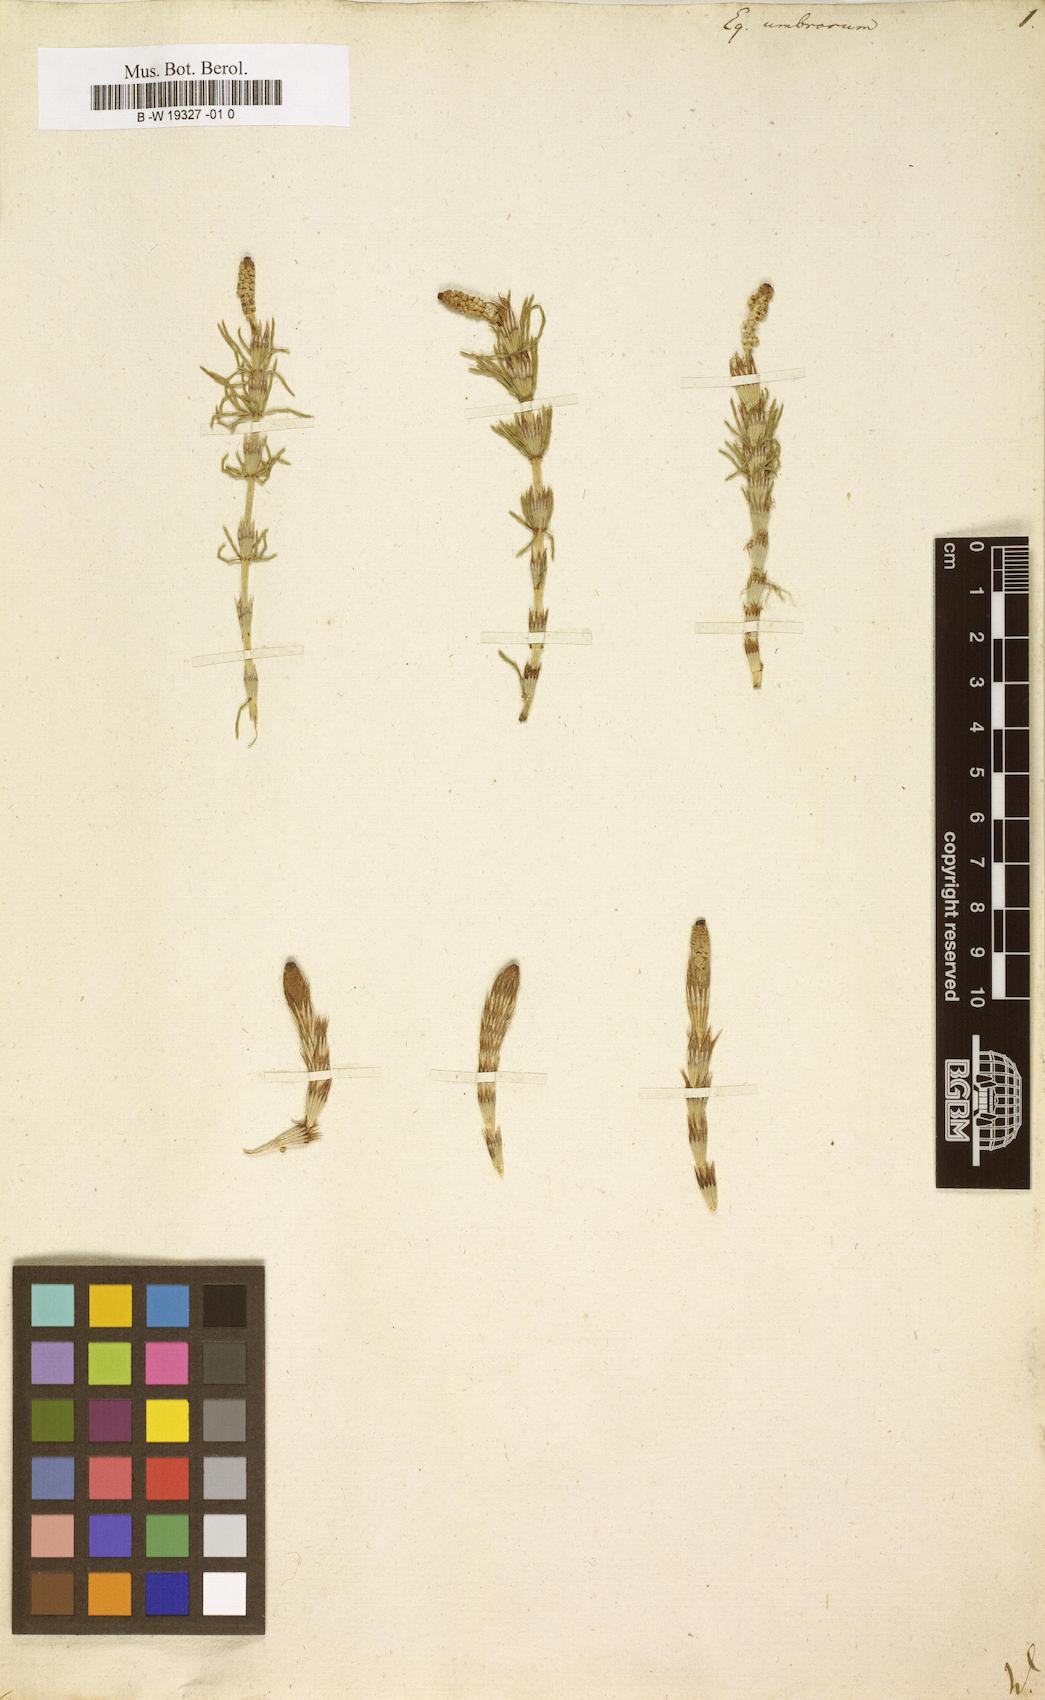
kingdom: Plantae
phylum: Tracheophyta
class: Polypodiopsida
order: Equisetales
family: Equisetaceae
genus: Equisetum
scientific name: Equisetum pratense
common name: Meadow horsetail
